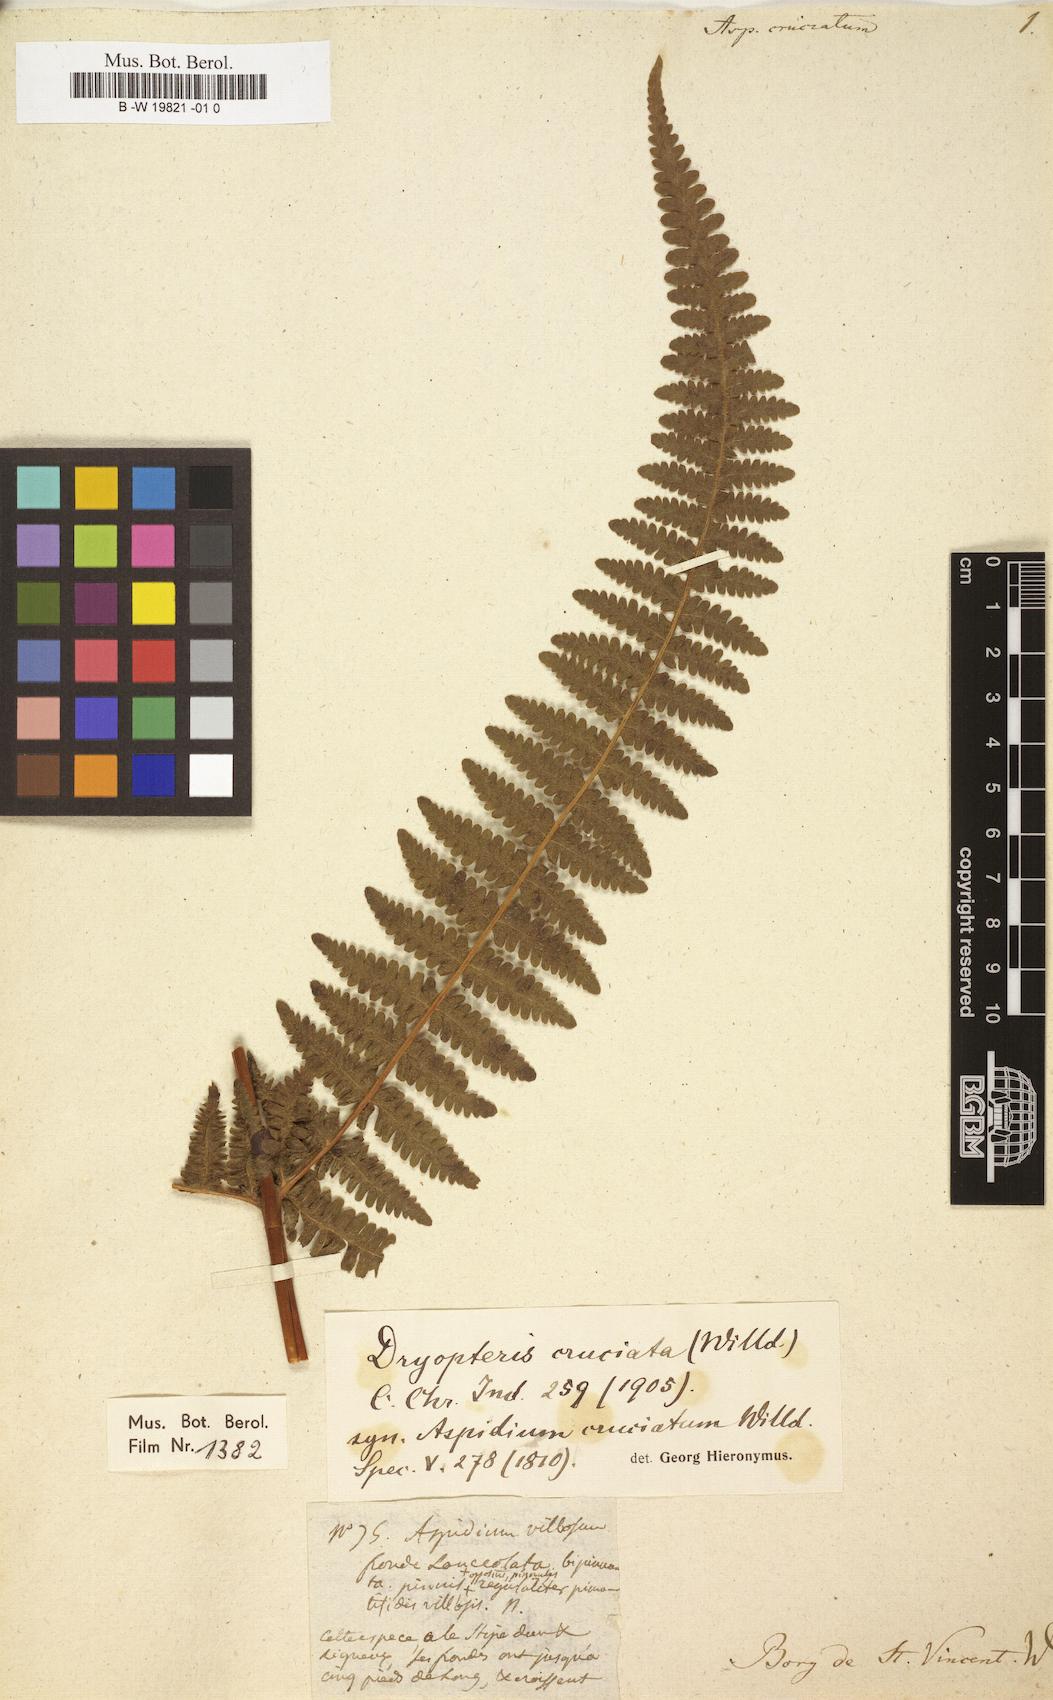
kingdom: Plantae
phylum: Tracheophyta
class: Polypodiopsida
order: Polypodiales
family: Thelypteridaceae
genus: Pseudophegopteris
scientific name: Pseudophegopteris cruciata
